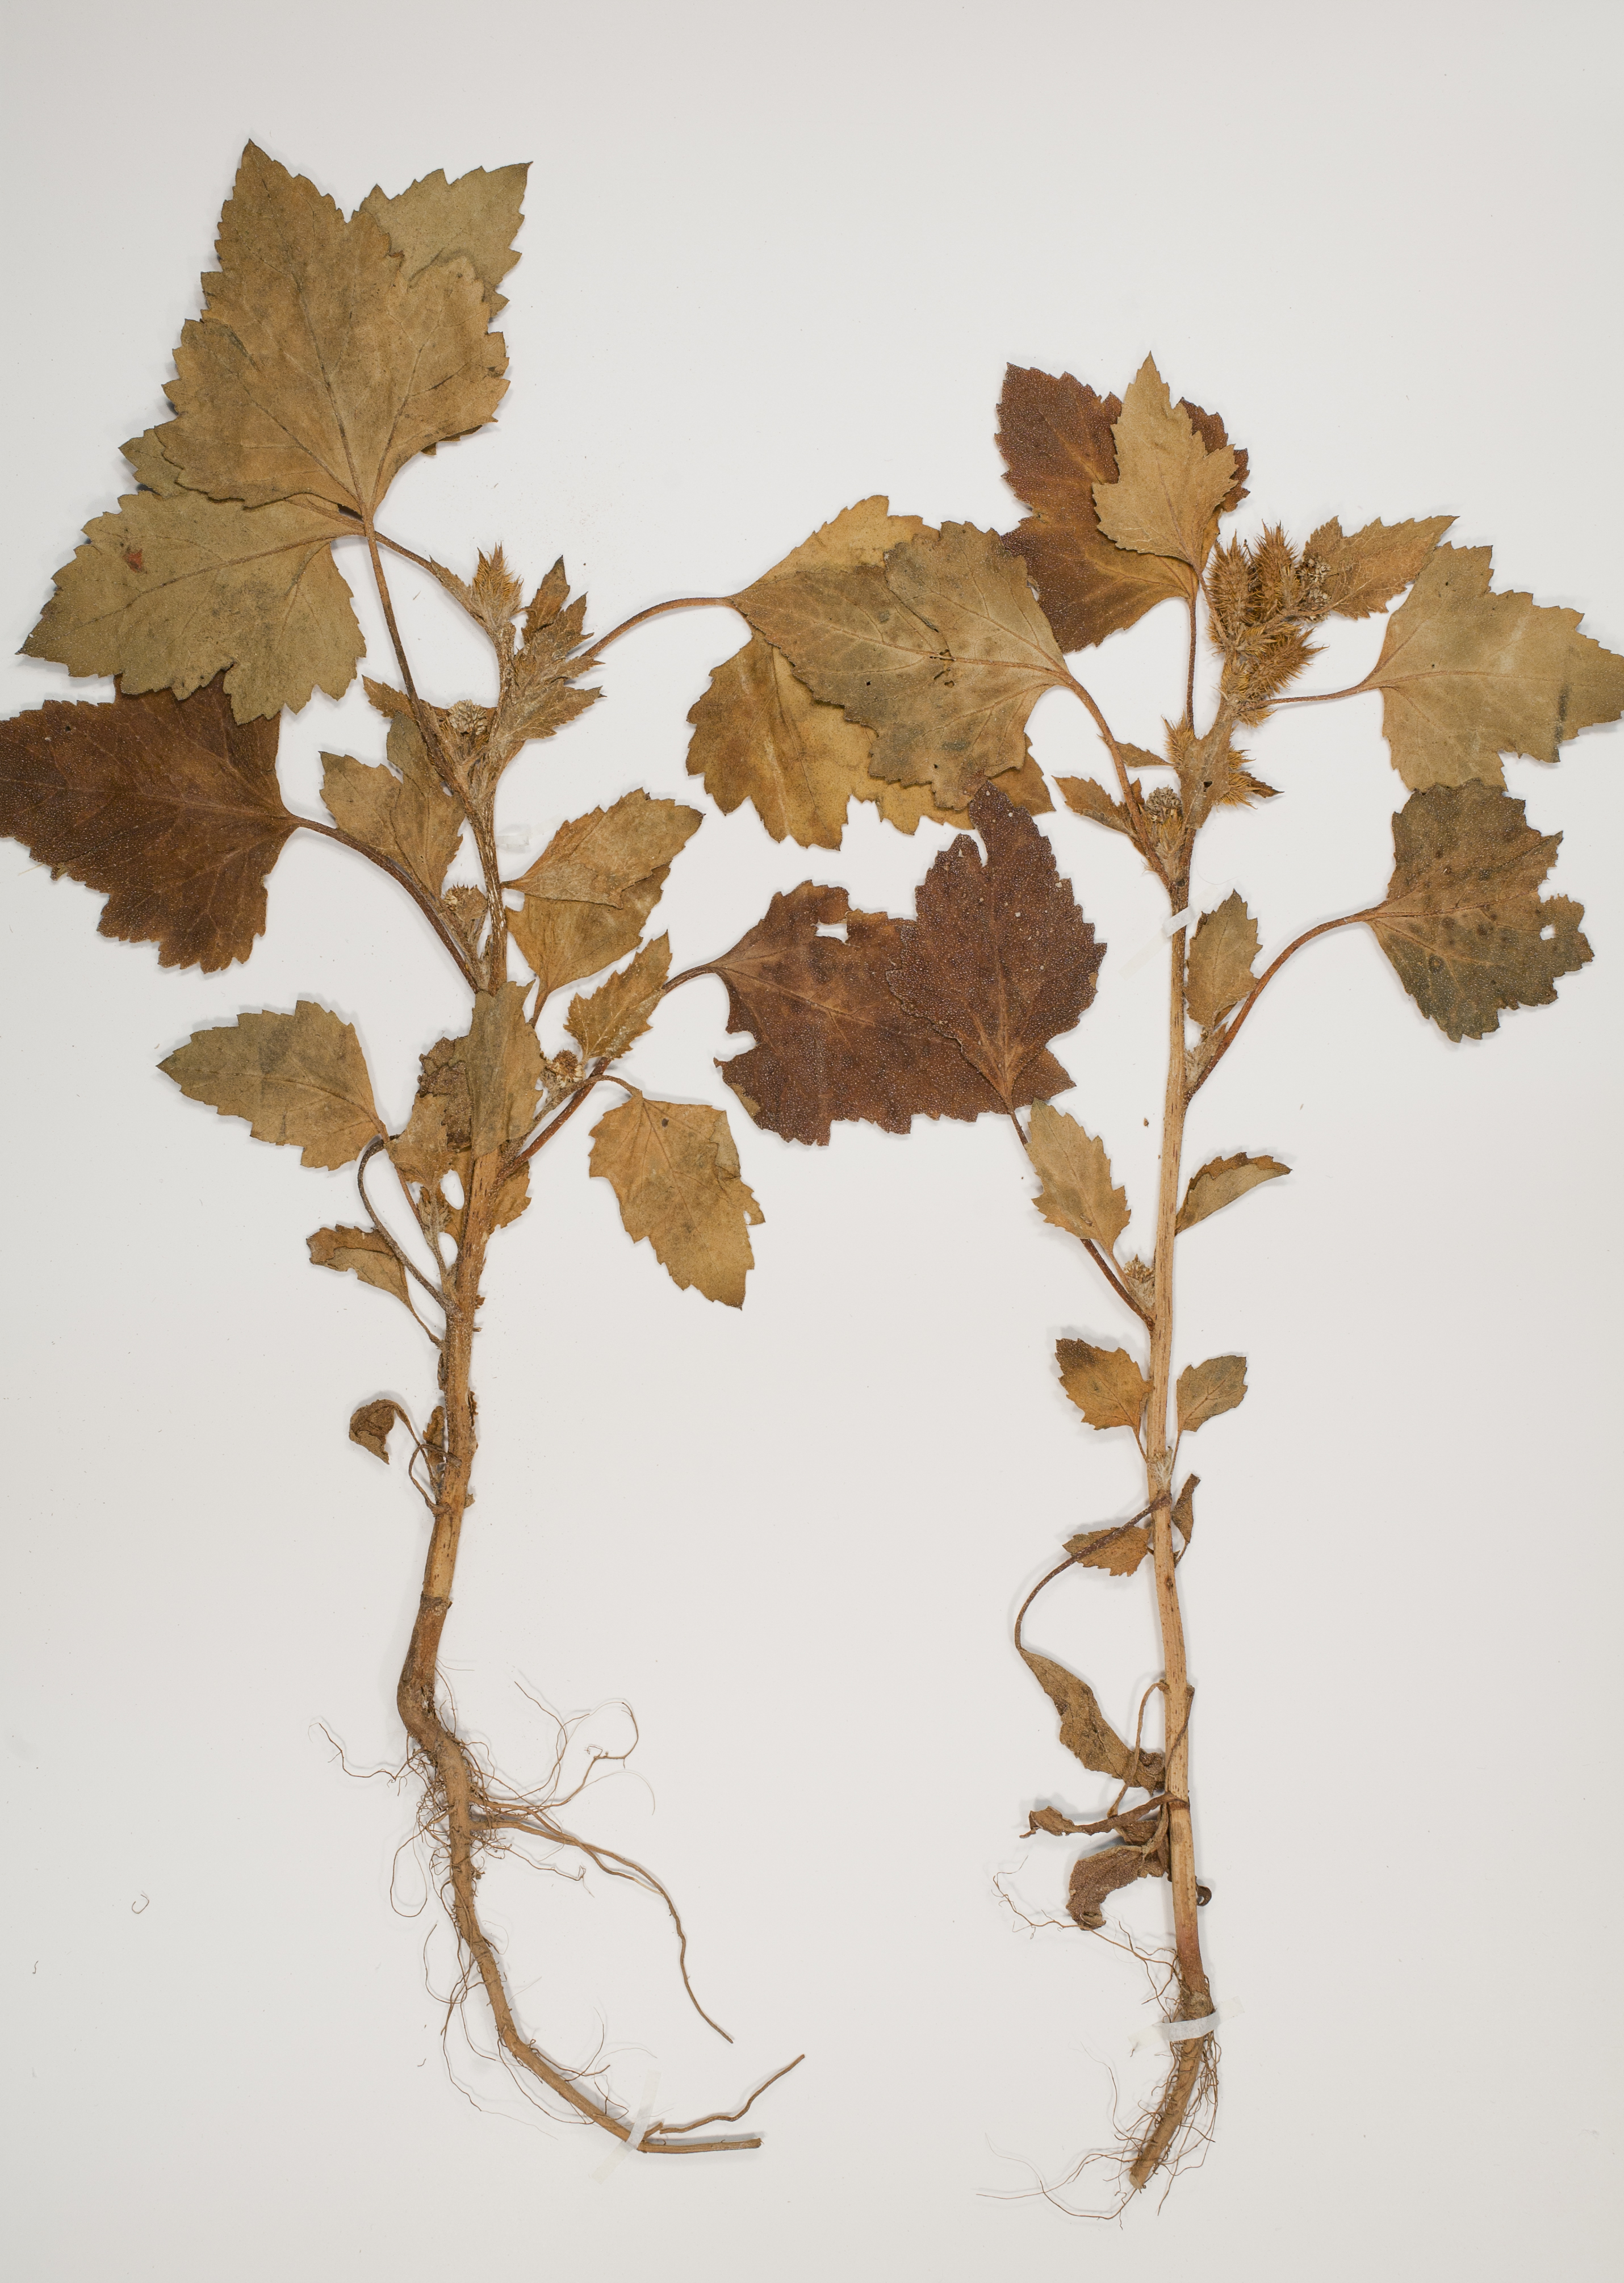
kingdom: Plantae
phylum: Tracheophyta
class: Magnoliopsida
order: Asterales
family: Asteraceae
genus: Xanthium
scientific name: Xanthium orientale
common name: Californian burr
